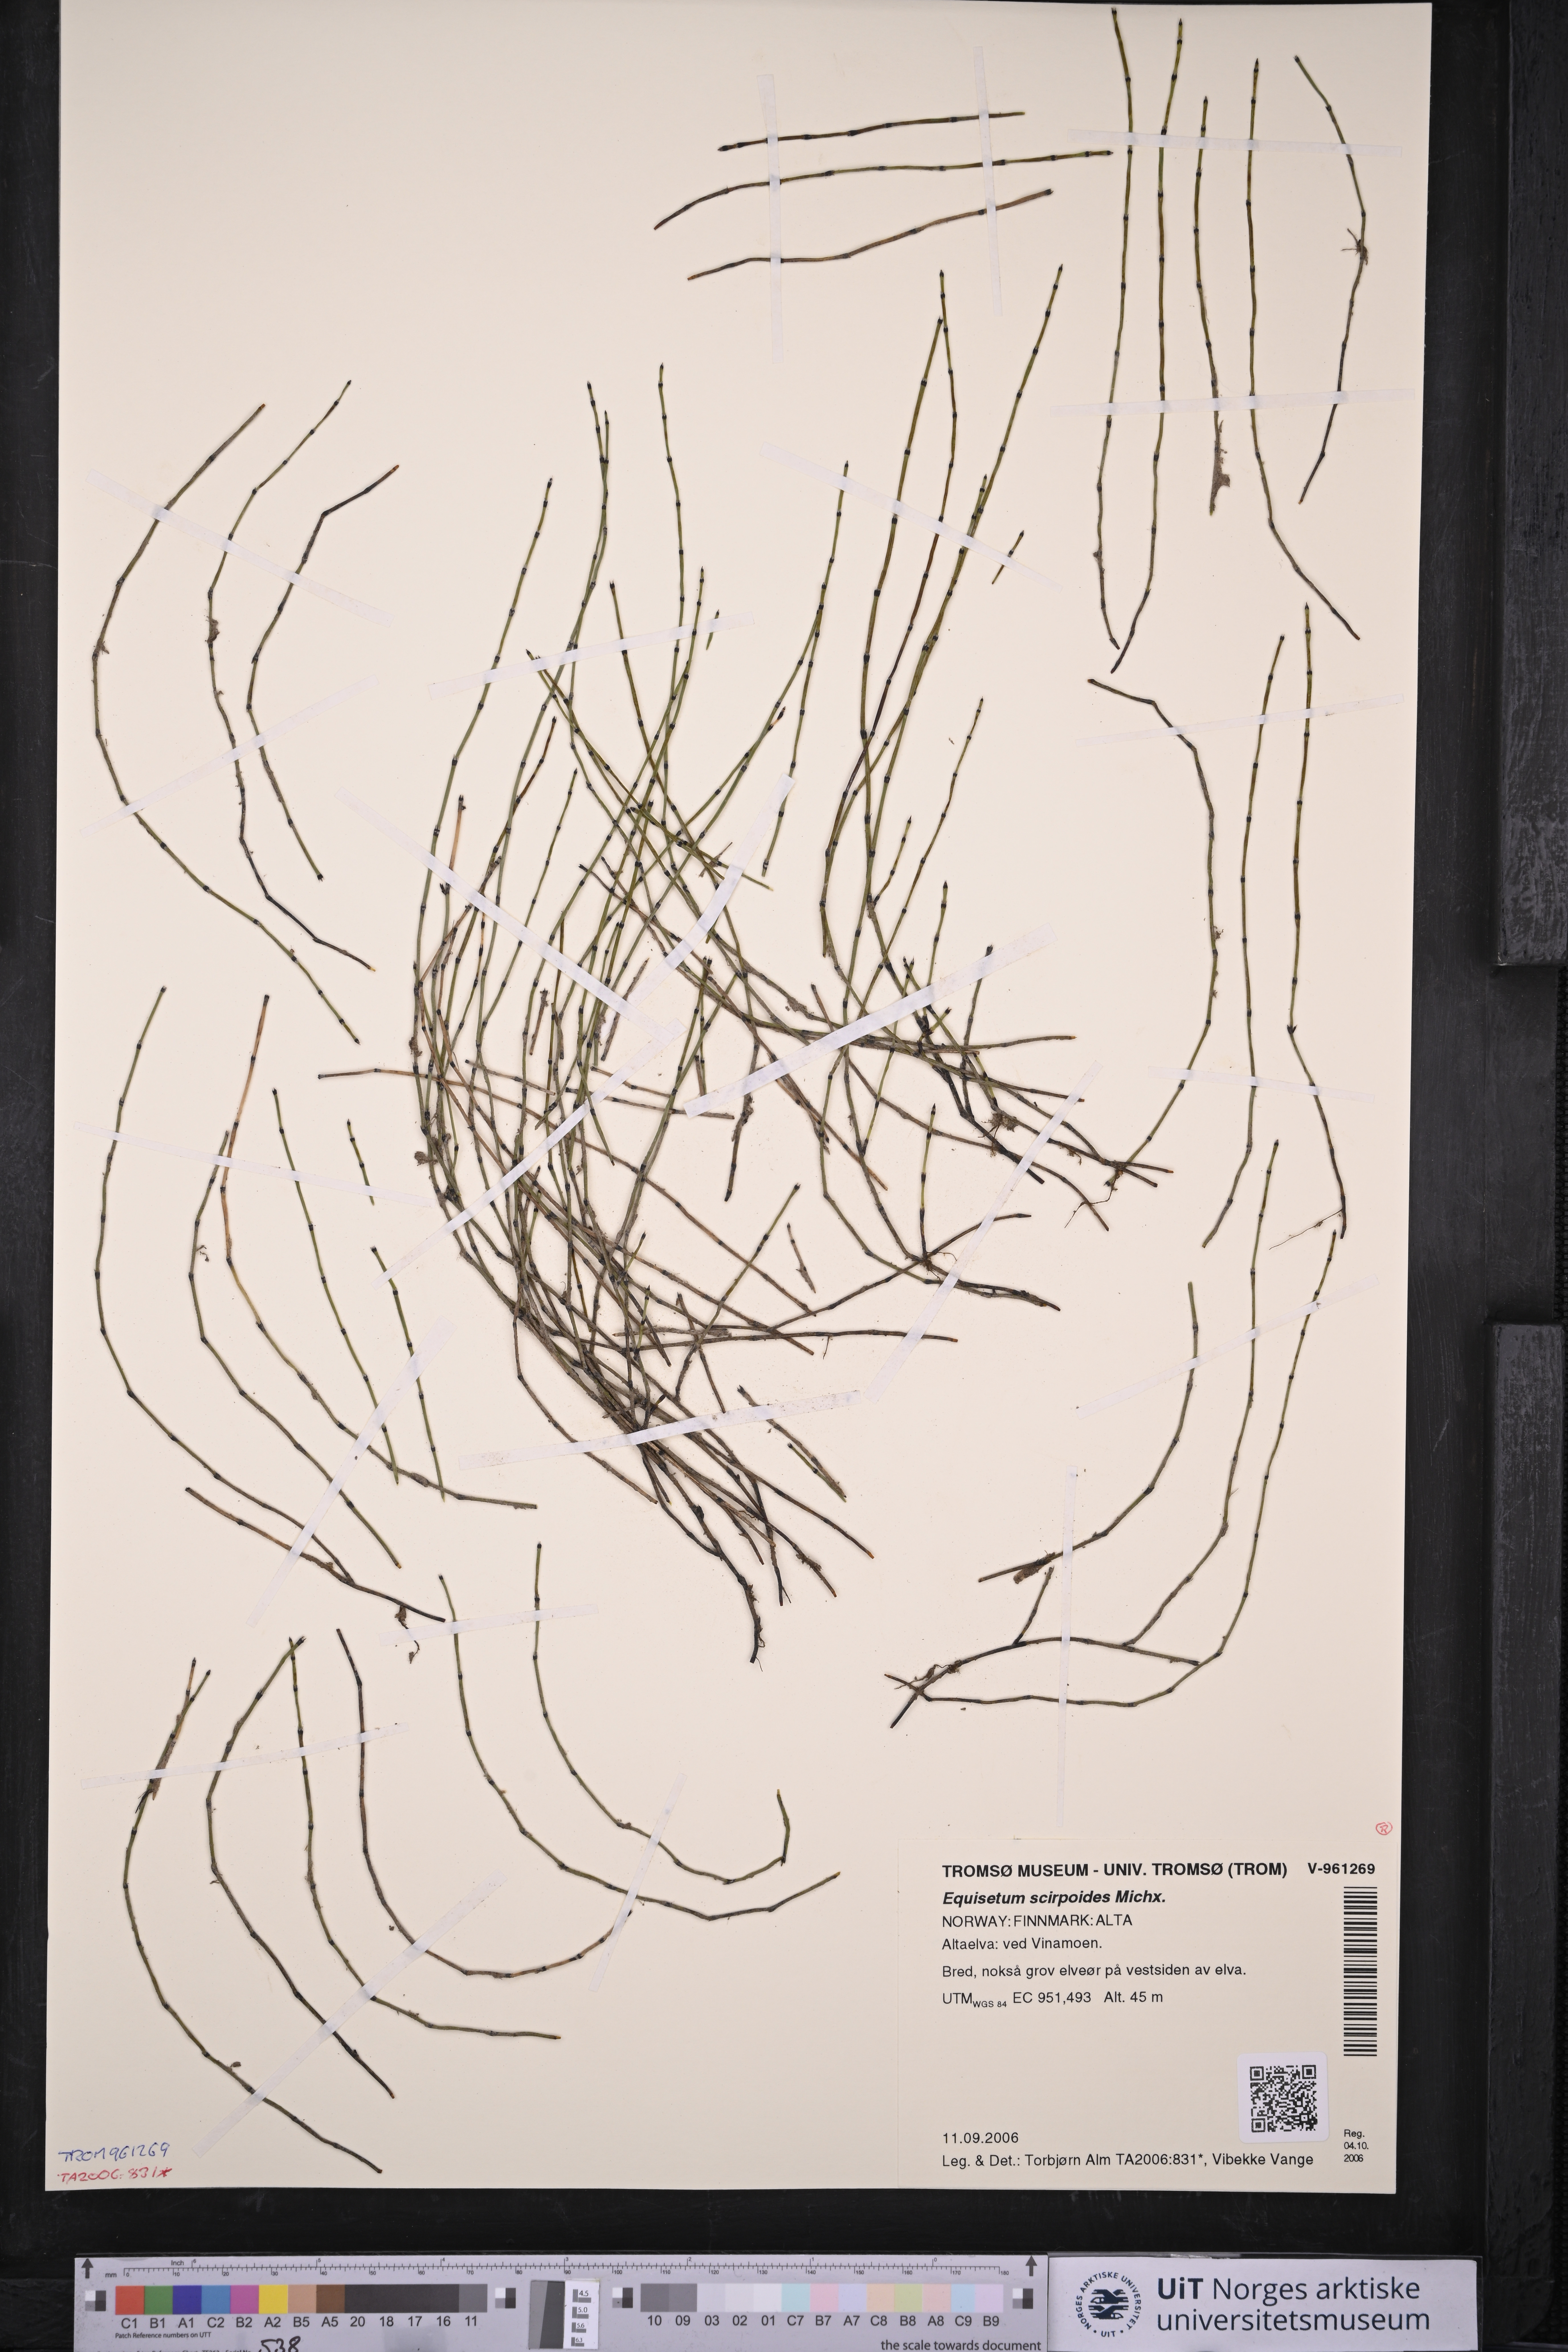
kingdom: Plantae
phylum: Tracheophyta
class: Polypodiopsida
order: Equisetales
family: Equisetaceae
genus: Equisetum
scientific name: Equisetum scirpoides
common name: Delicate horsetail
